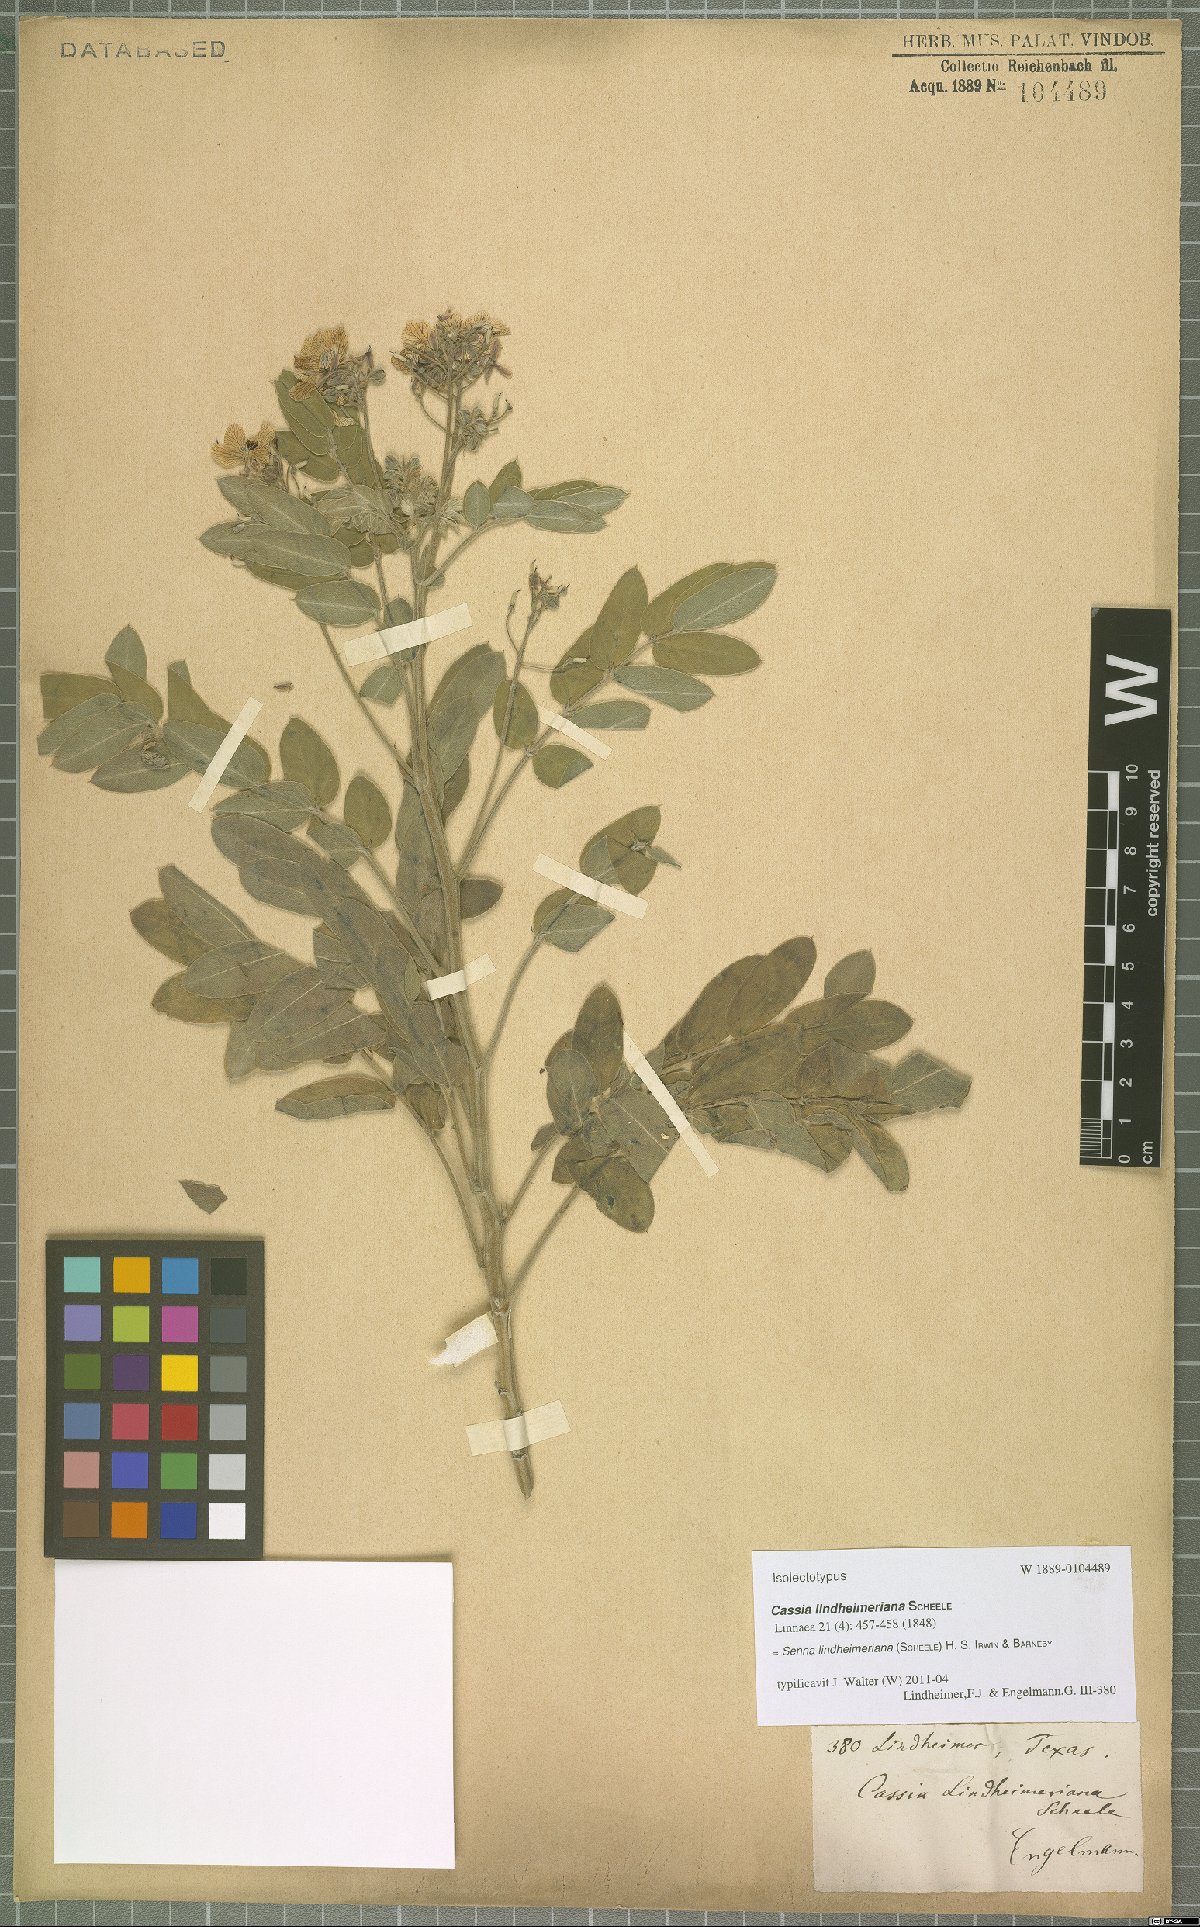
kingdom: Plantae
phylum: Tracheophyta
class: Magnoliopsida
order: Fabales
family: Fabaceae
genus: Senna
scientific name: Senna lindheimeriana
